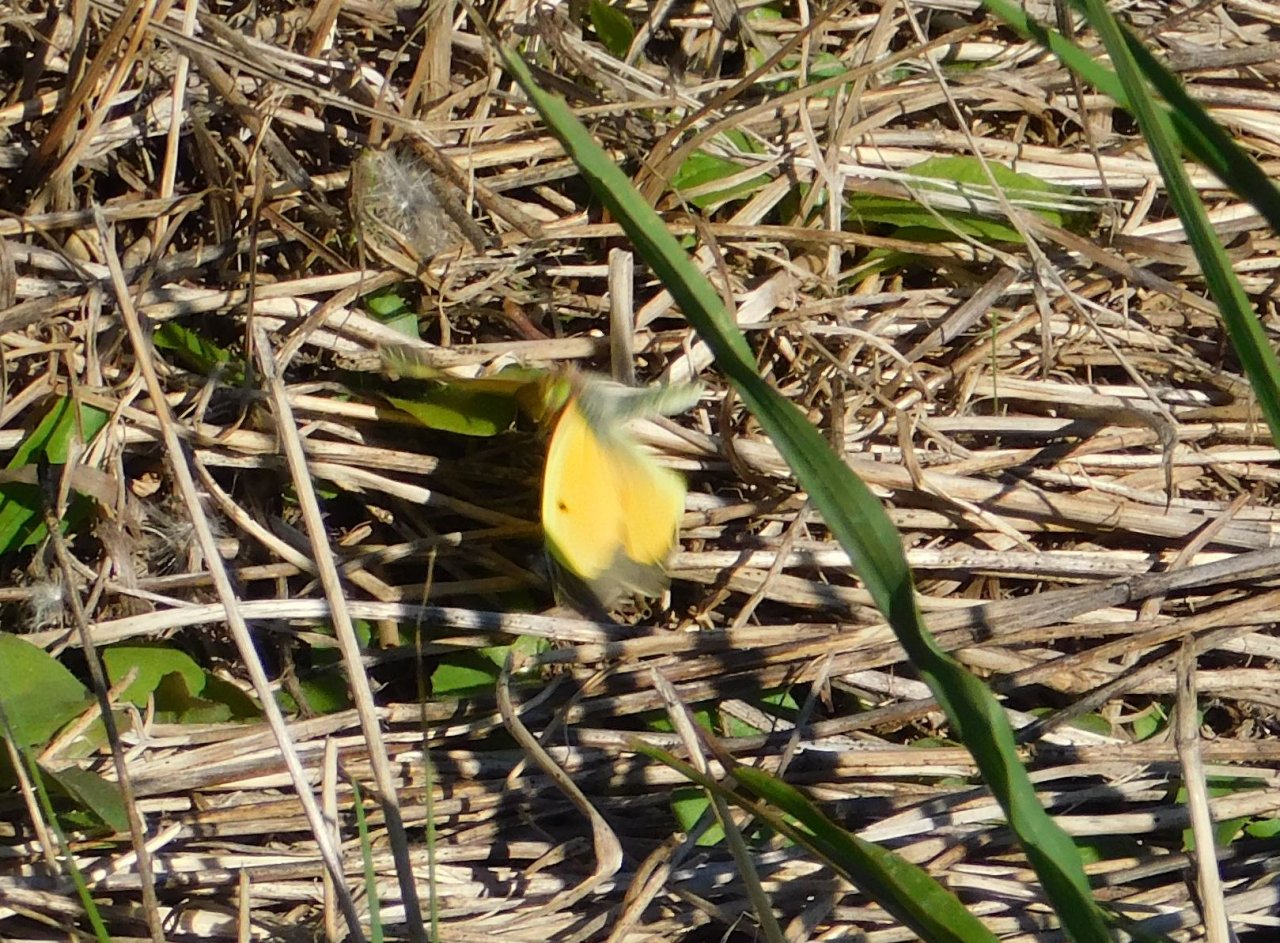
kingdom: Animalia
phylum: Arthropoda
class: Insecta
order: Lepidoptera
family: Pieridae
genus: Colias
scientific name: Colias eurytheme
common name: Orange Sulphur
